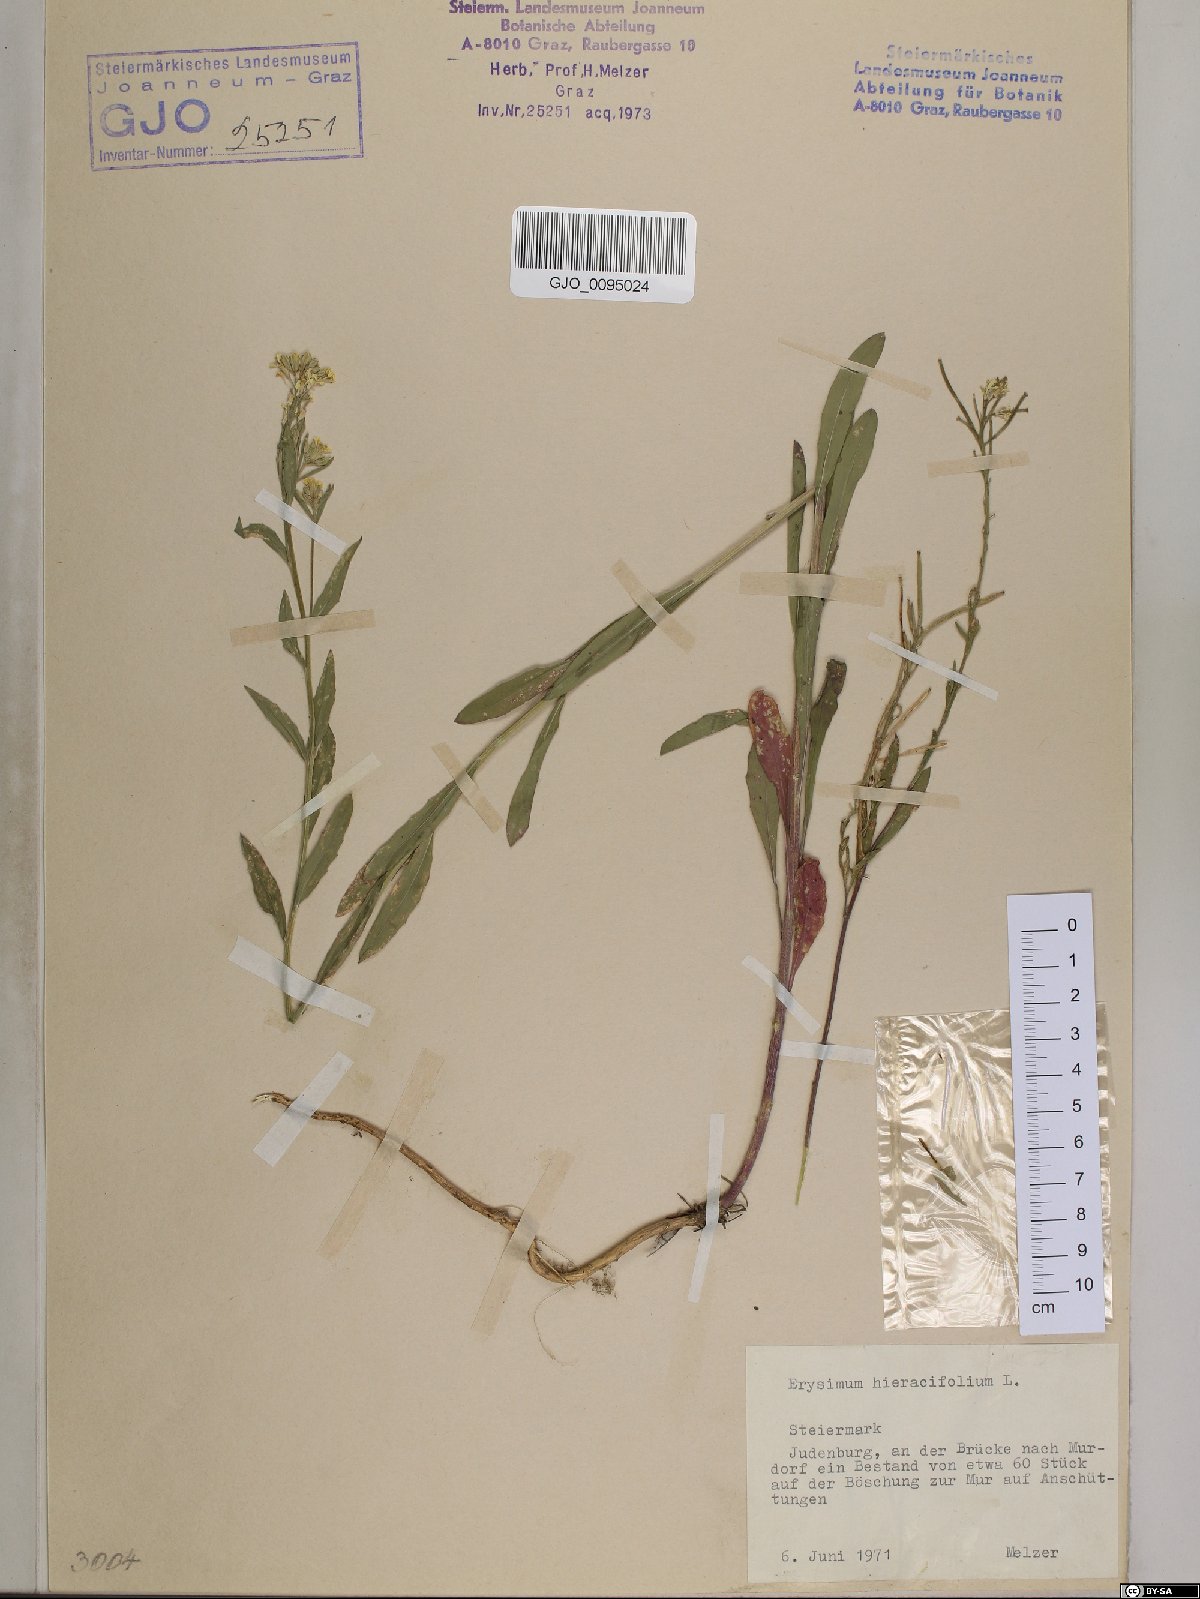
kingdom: Plantae
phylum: Tracheophyta
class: Magnoliopsida
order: Brassicales
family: Brassicaceae
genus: Erysimum
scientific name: Erysimum hieraciifolium
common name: European wallflower
